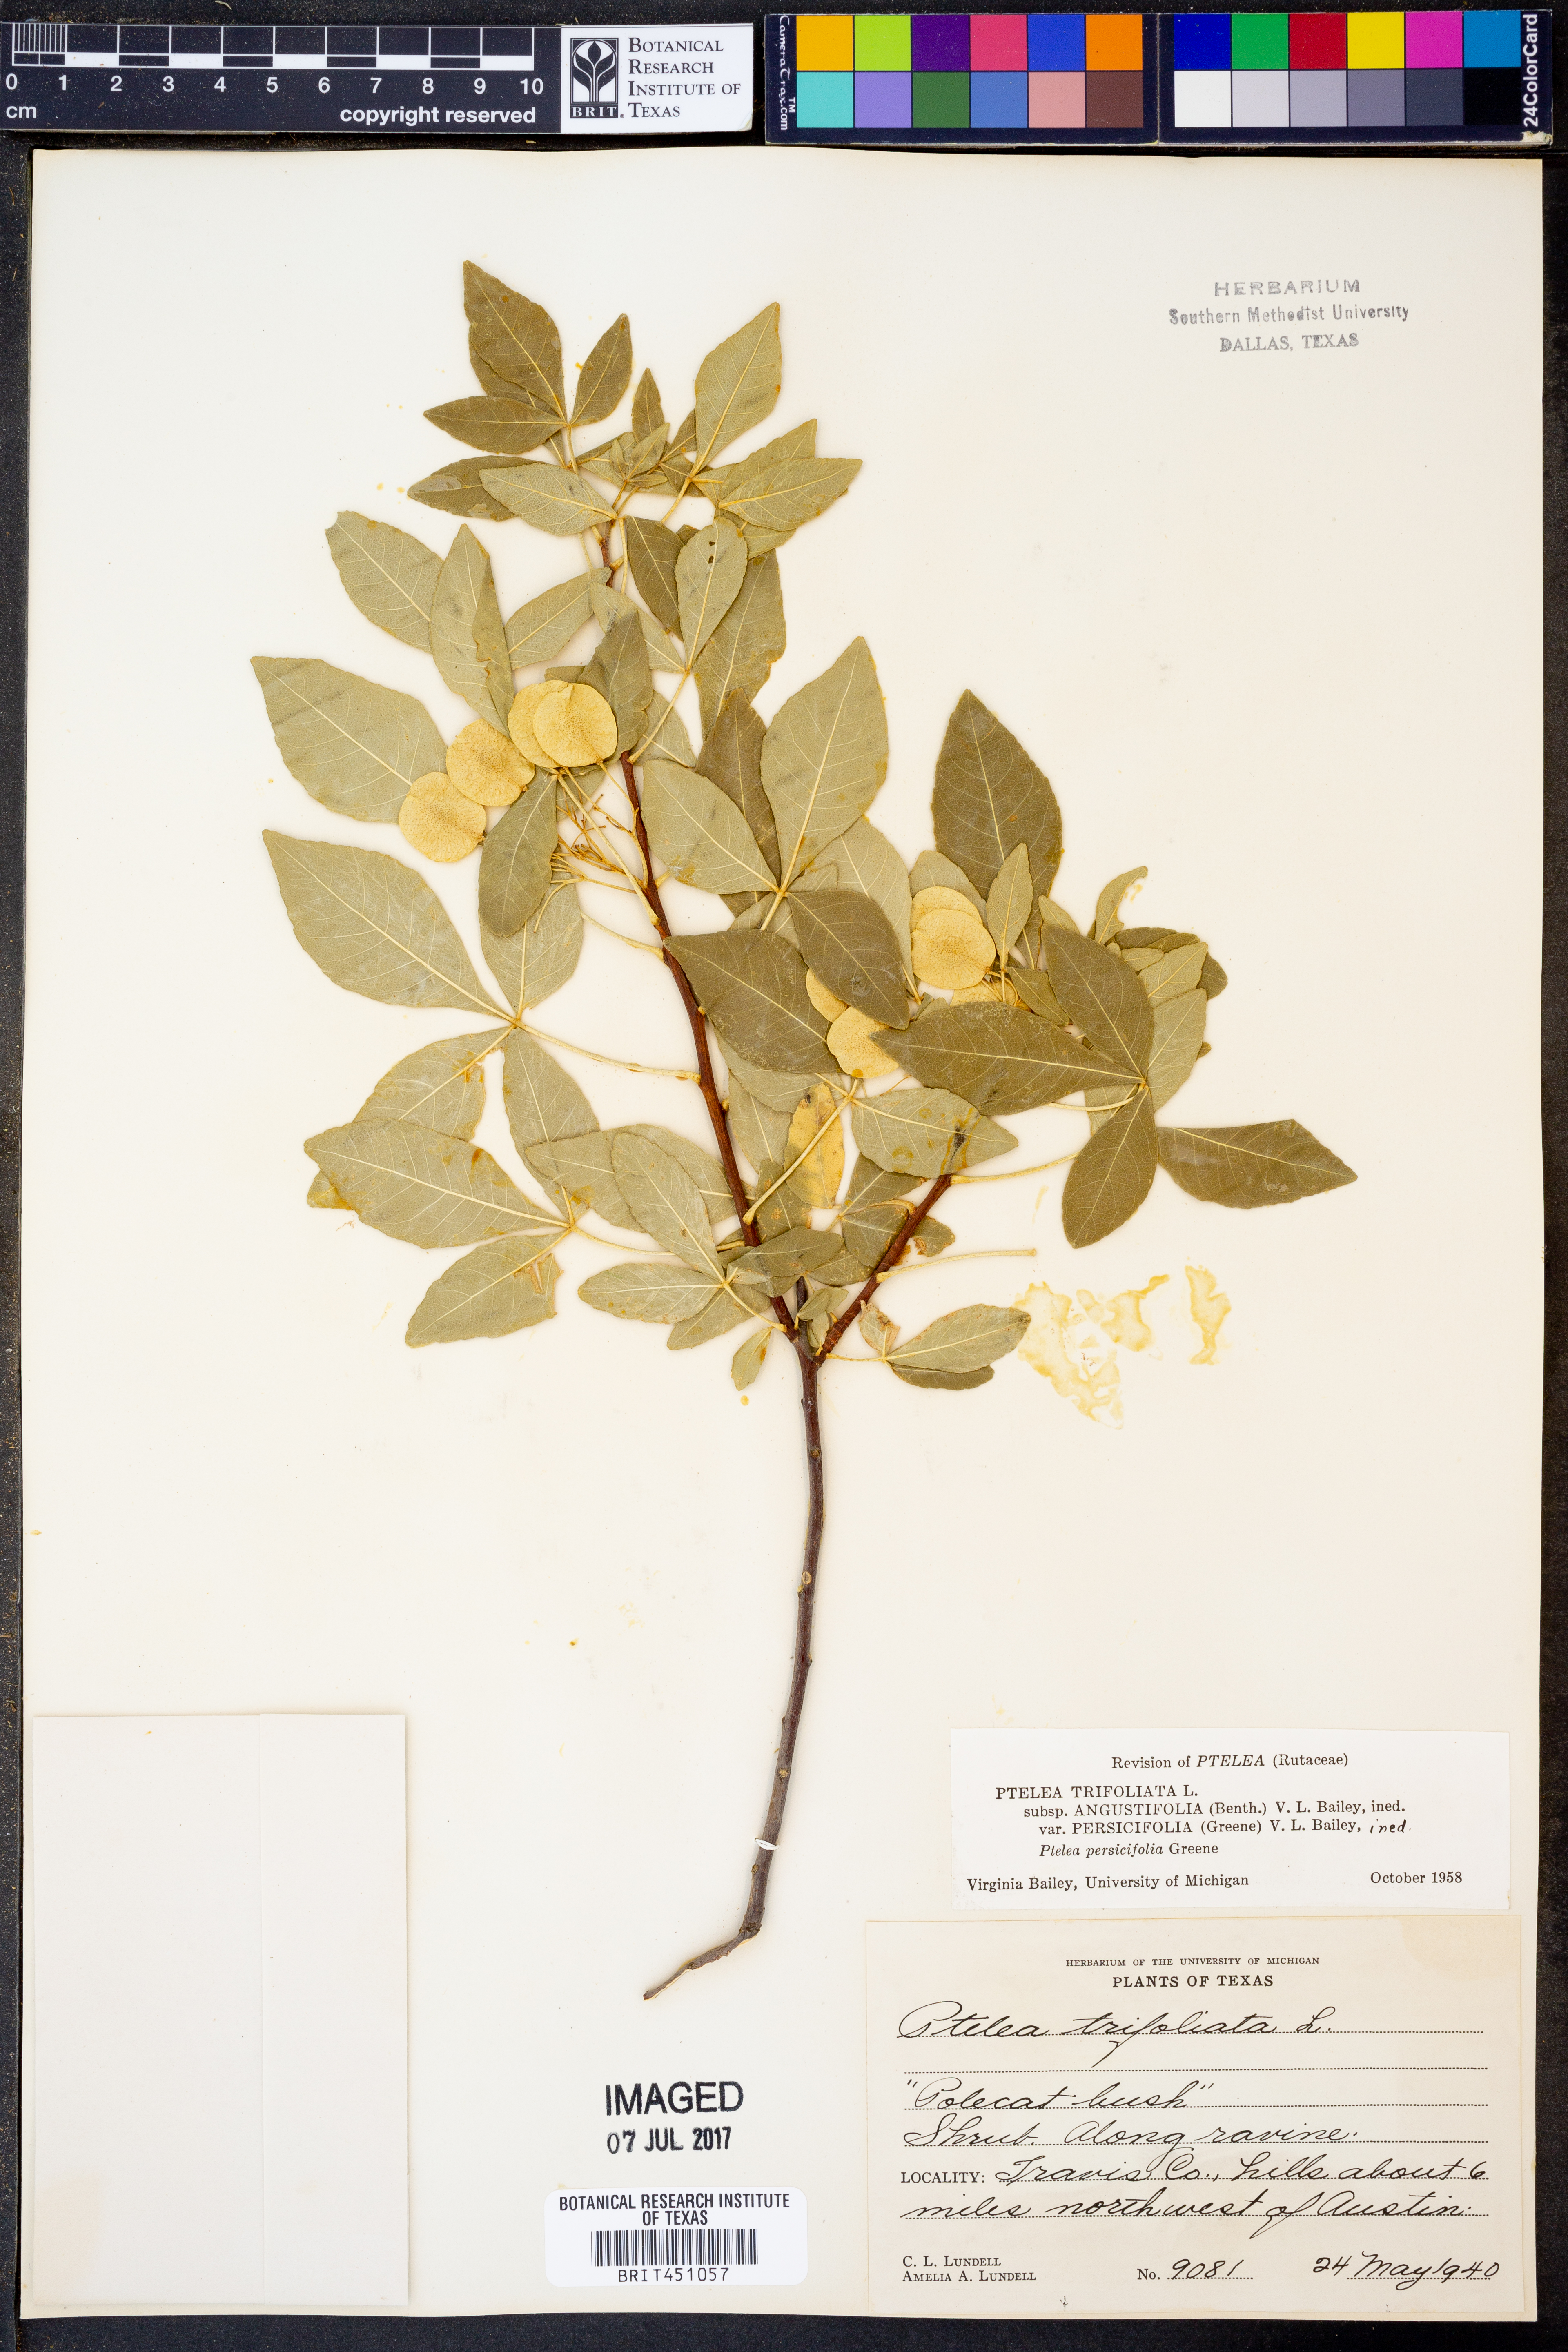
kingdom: Plantae
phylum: Tracheophyta
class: Magnoliopsida
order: Sapindales
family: Rutaceae
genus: Ptelea
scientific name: Ptelea trifoliata
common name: Common hop-tree
